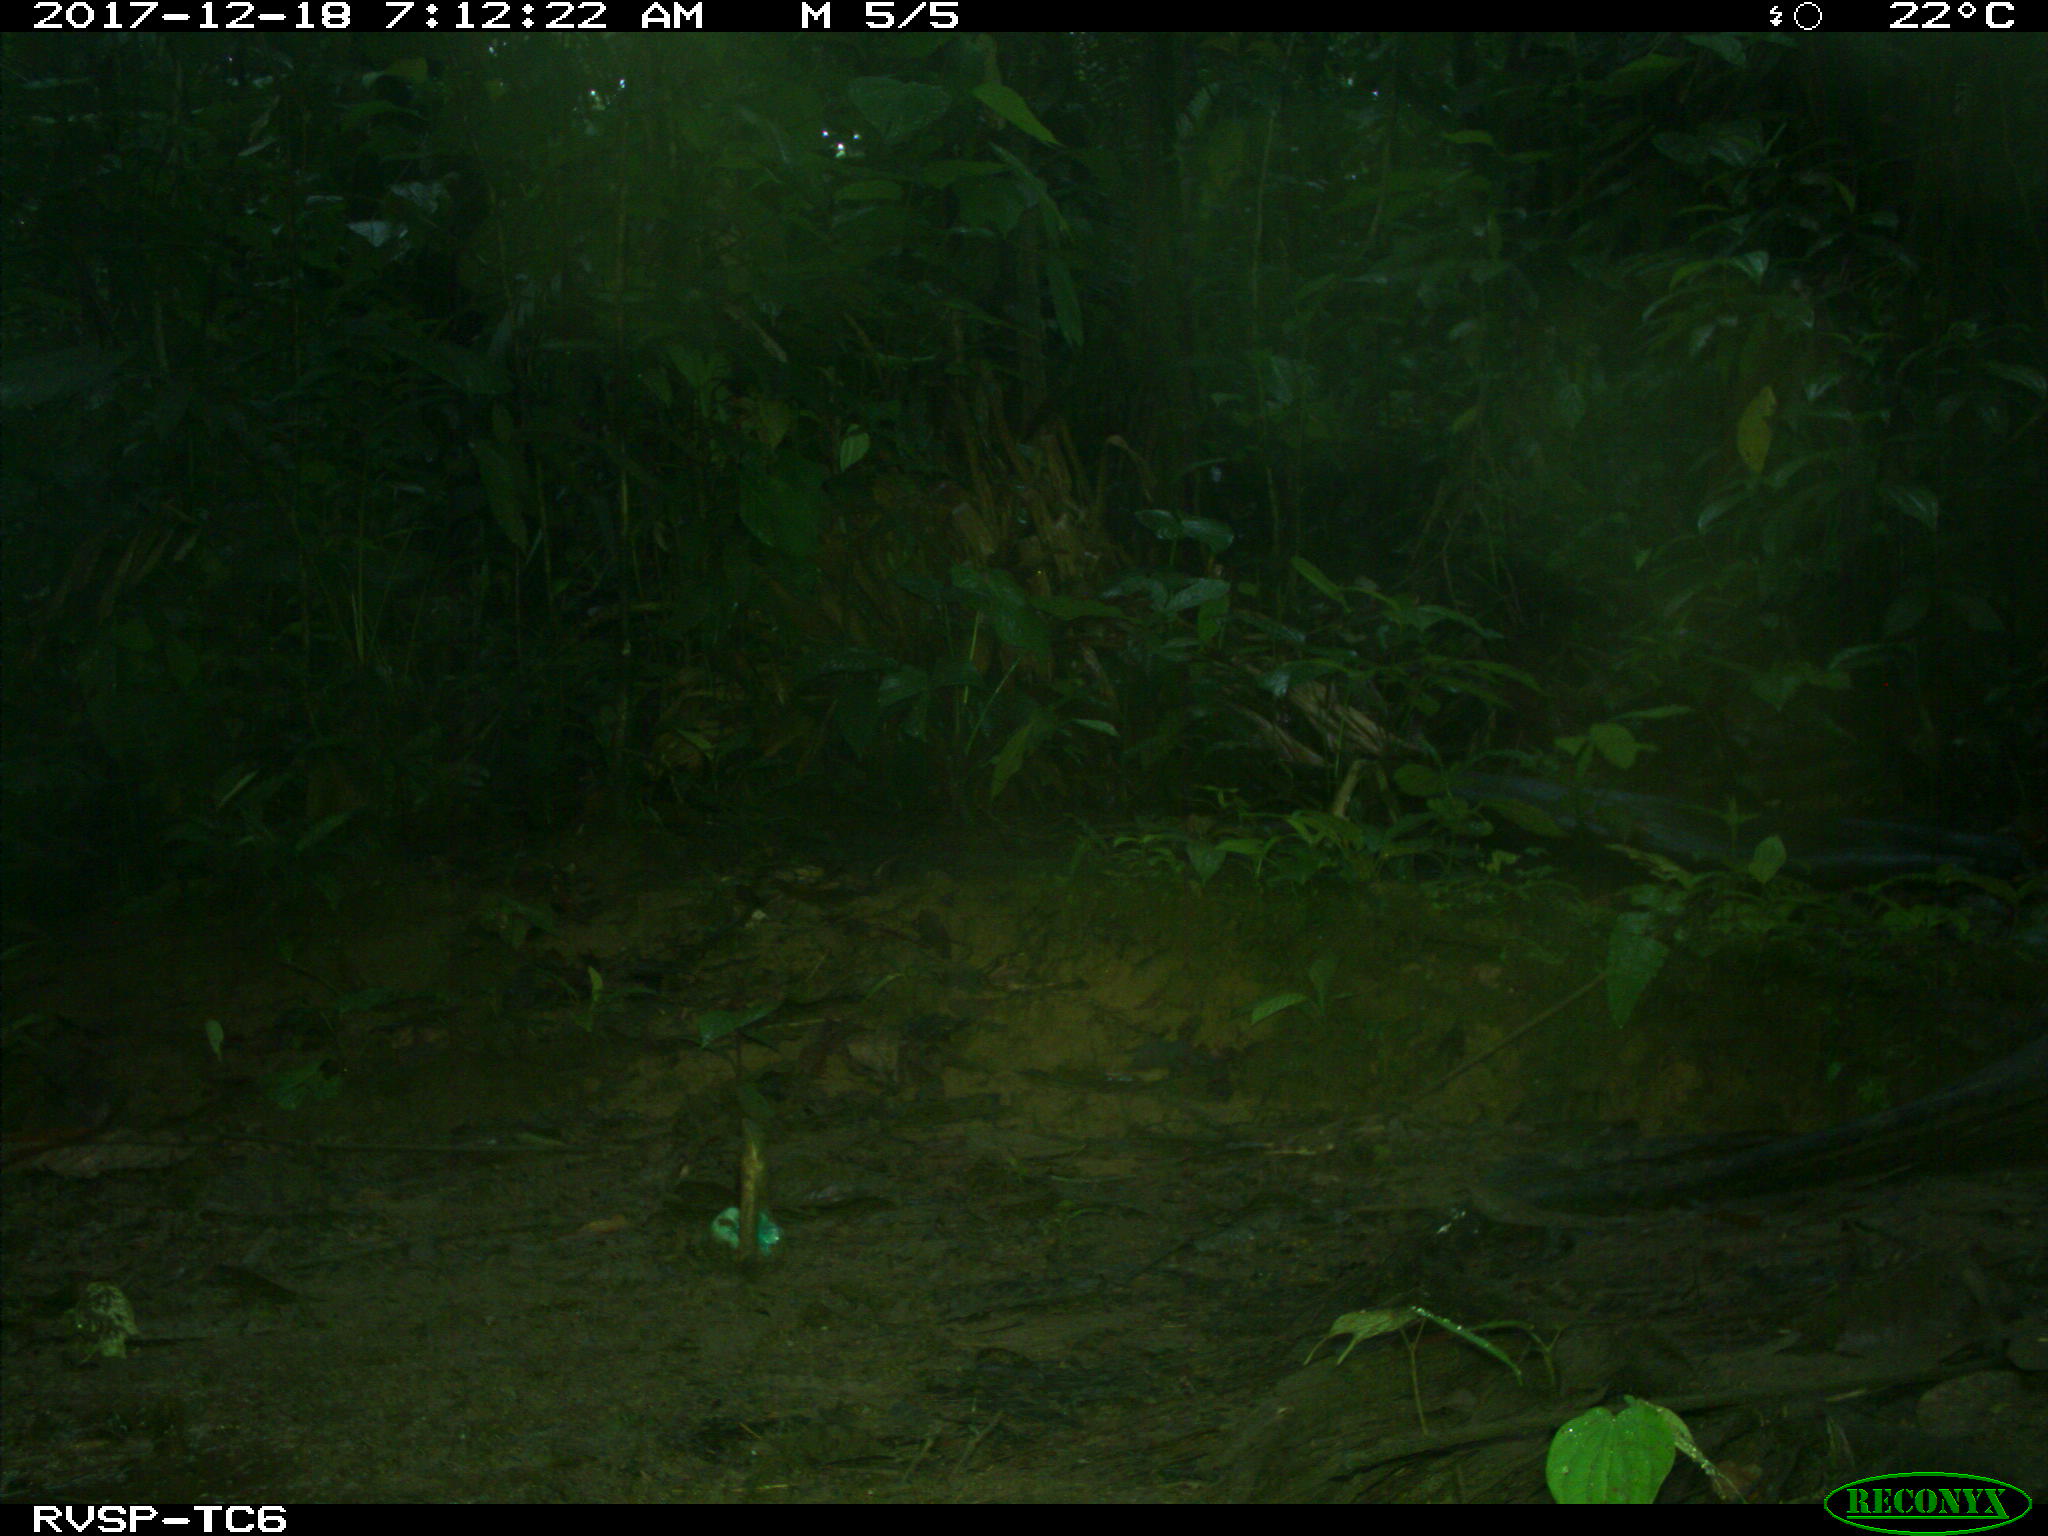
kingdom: Animalia
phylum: Chordata
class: Mammalia
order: Rodentia
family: Dasyproctidae
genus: Dasyprocta
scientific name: Dasyprocta punctata
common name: Central american agouti
